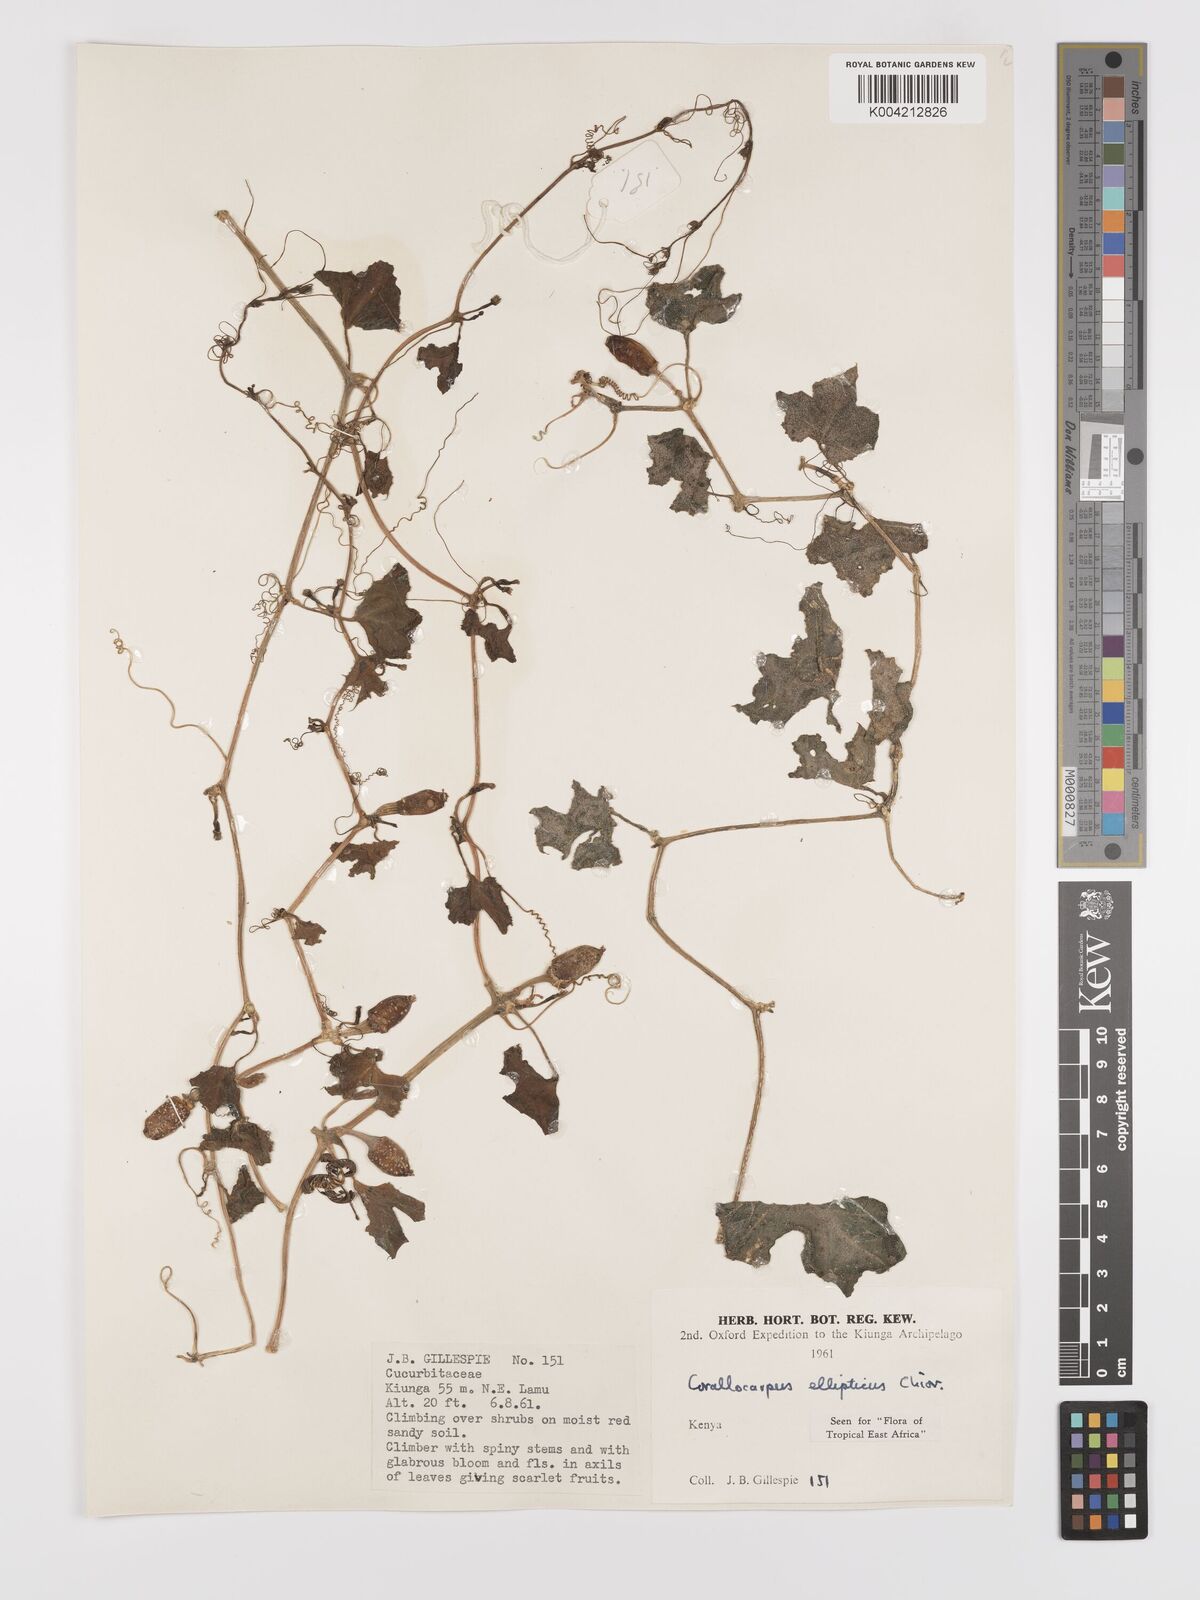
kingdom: Plantae
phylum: Tracheophyta
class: Magnoliopsida
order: Cucurbitales
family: Cucurbitaceae
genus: Corallocarpus
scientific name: Corallocarpus ellipticus
